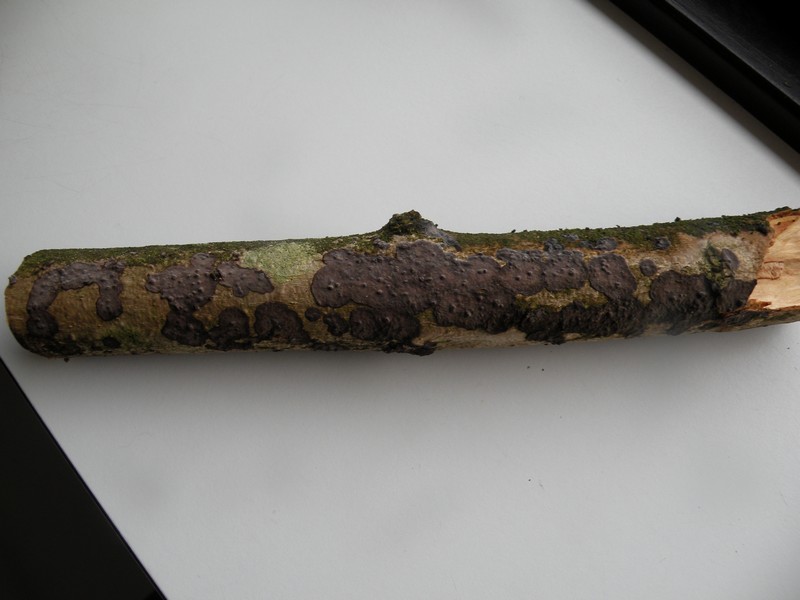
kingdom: Fungi
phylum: Basidiomycota
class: Agaricomycetes
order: Russulales
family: Peniophoraceae
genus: Peniophora
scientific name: Peniophora limitata
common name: mørkrandet voksskind
